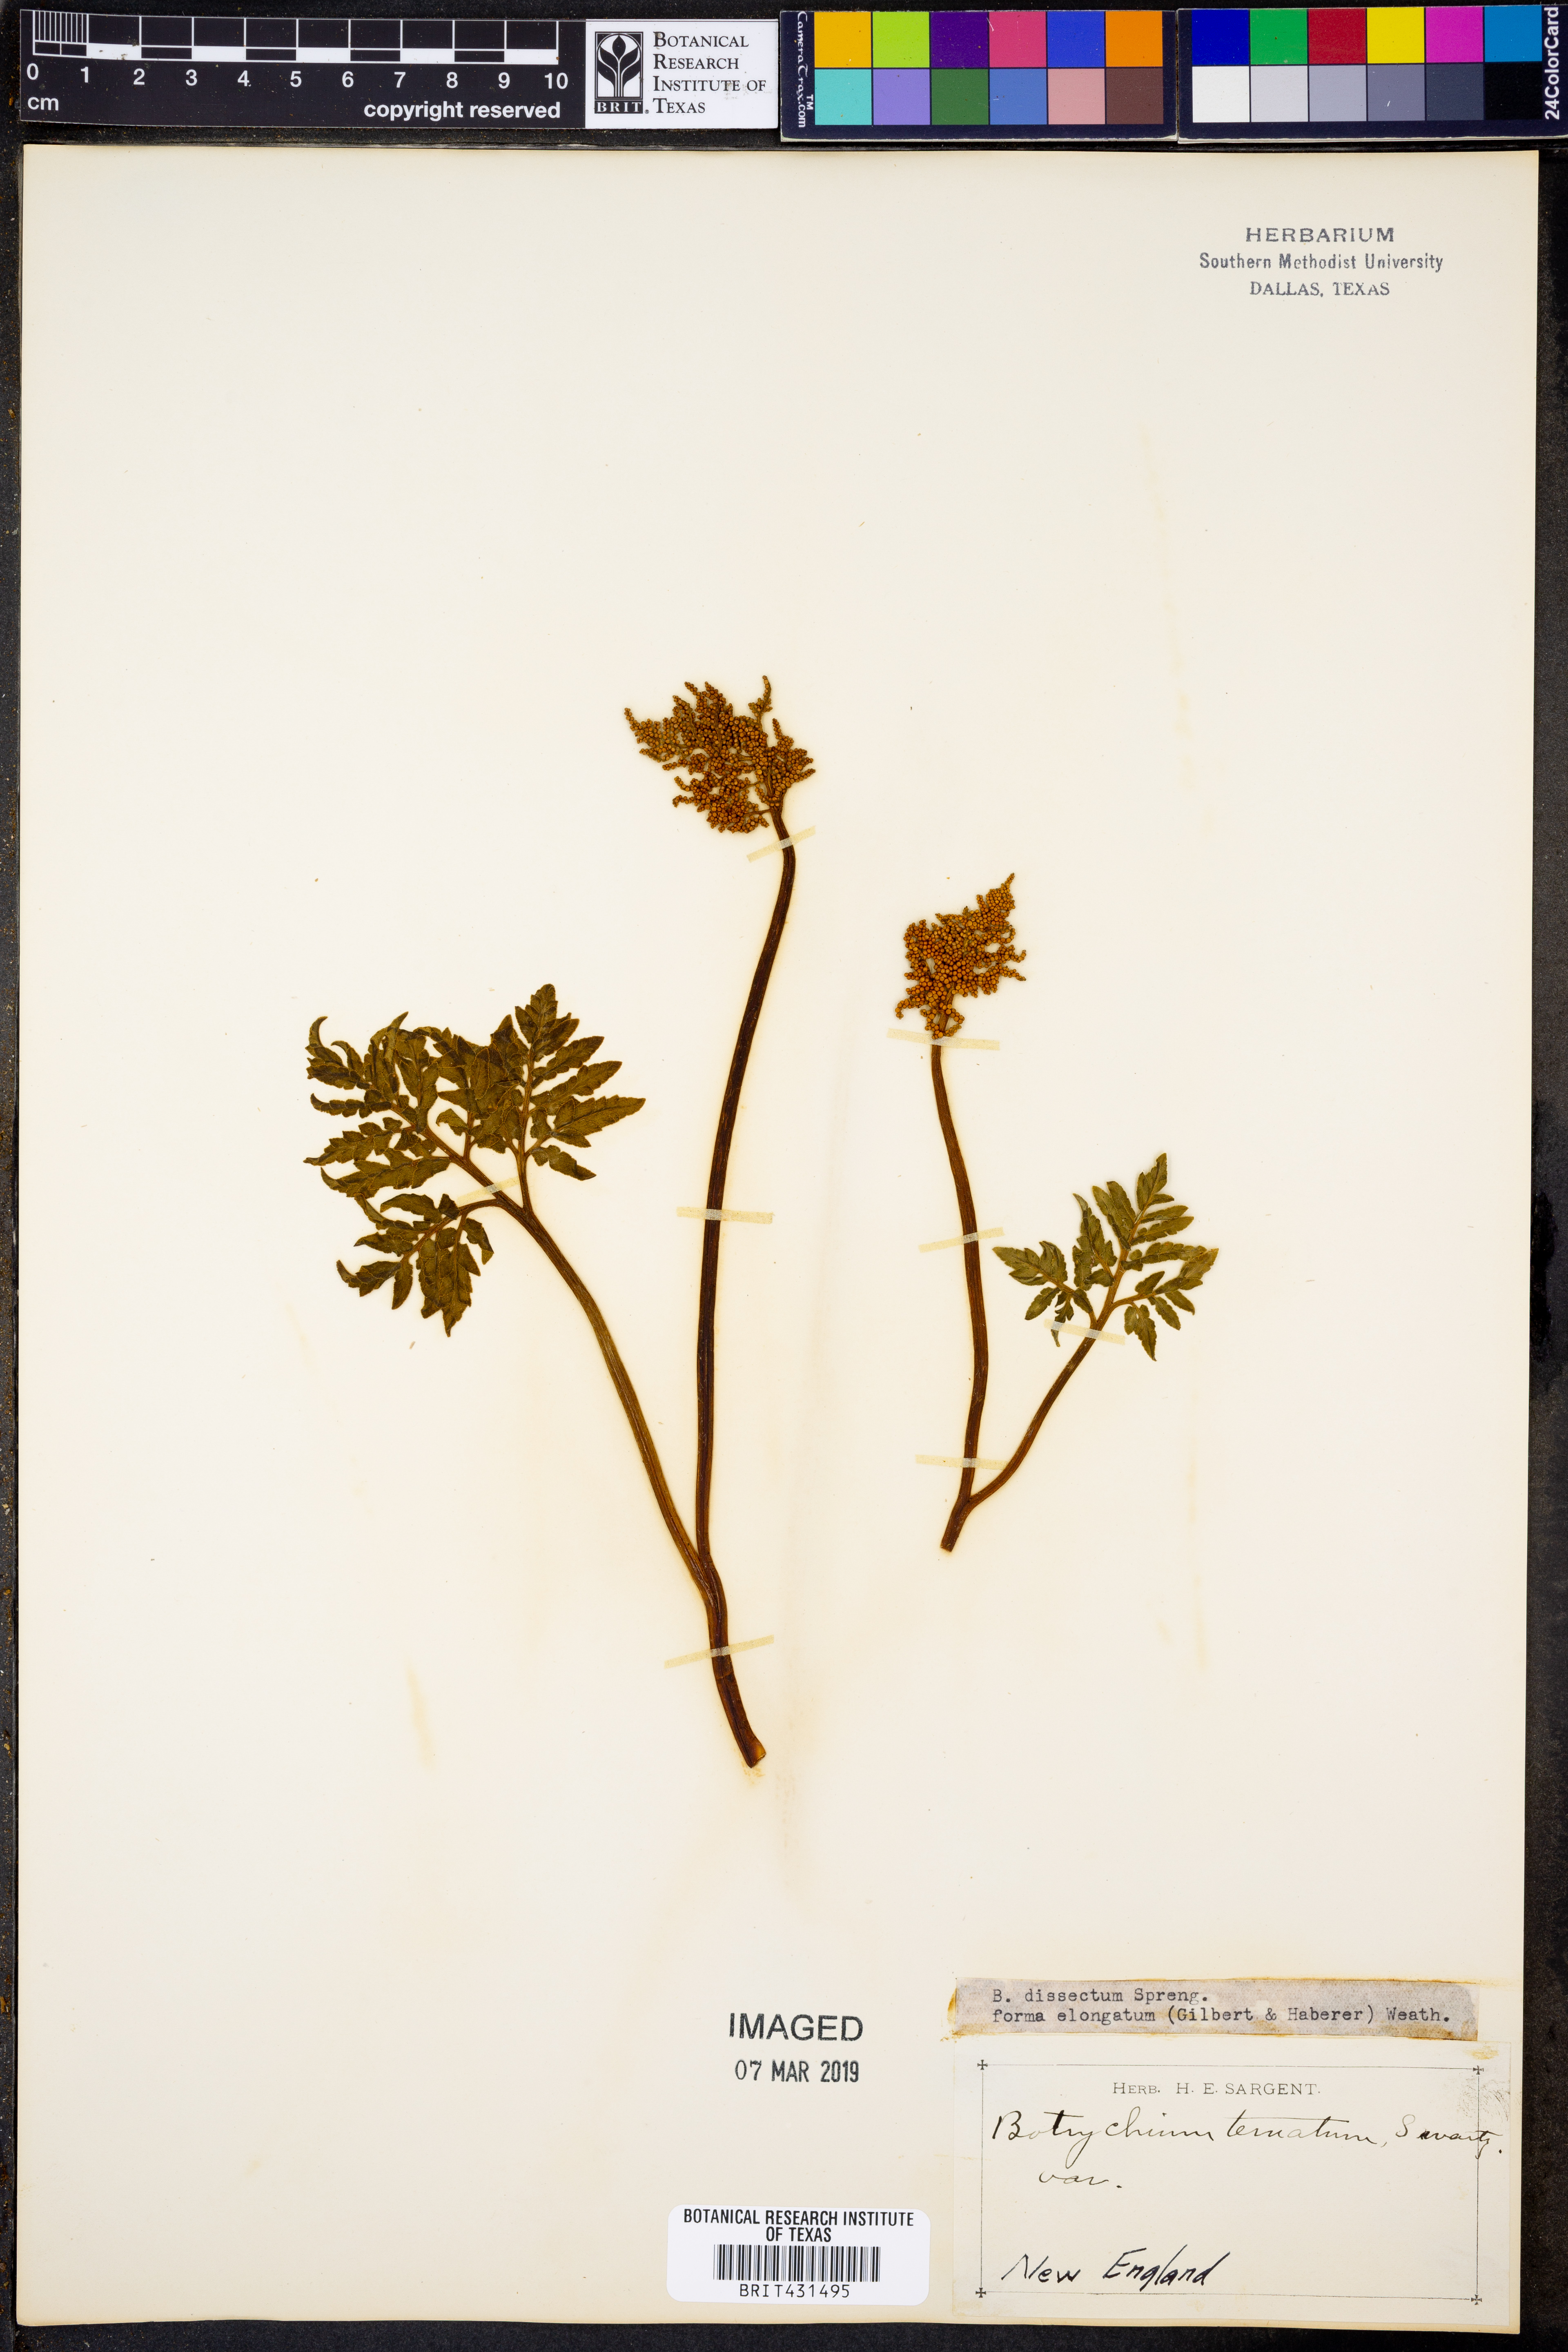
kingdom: Plantae
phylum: Tracheophyta
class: Polypodiopsida
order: Ophioglossales
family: Ophioglossaceae
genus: Sceptridium
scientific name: Sceptridium dissectum
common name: Cut-leaved grapefern
